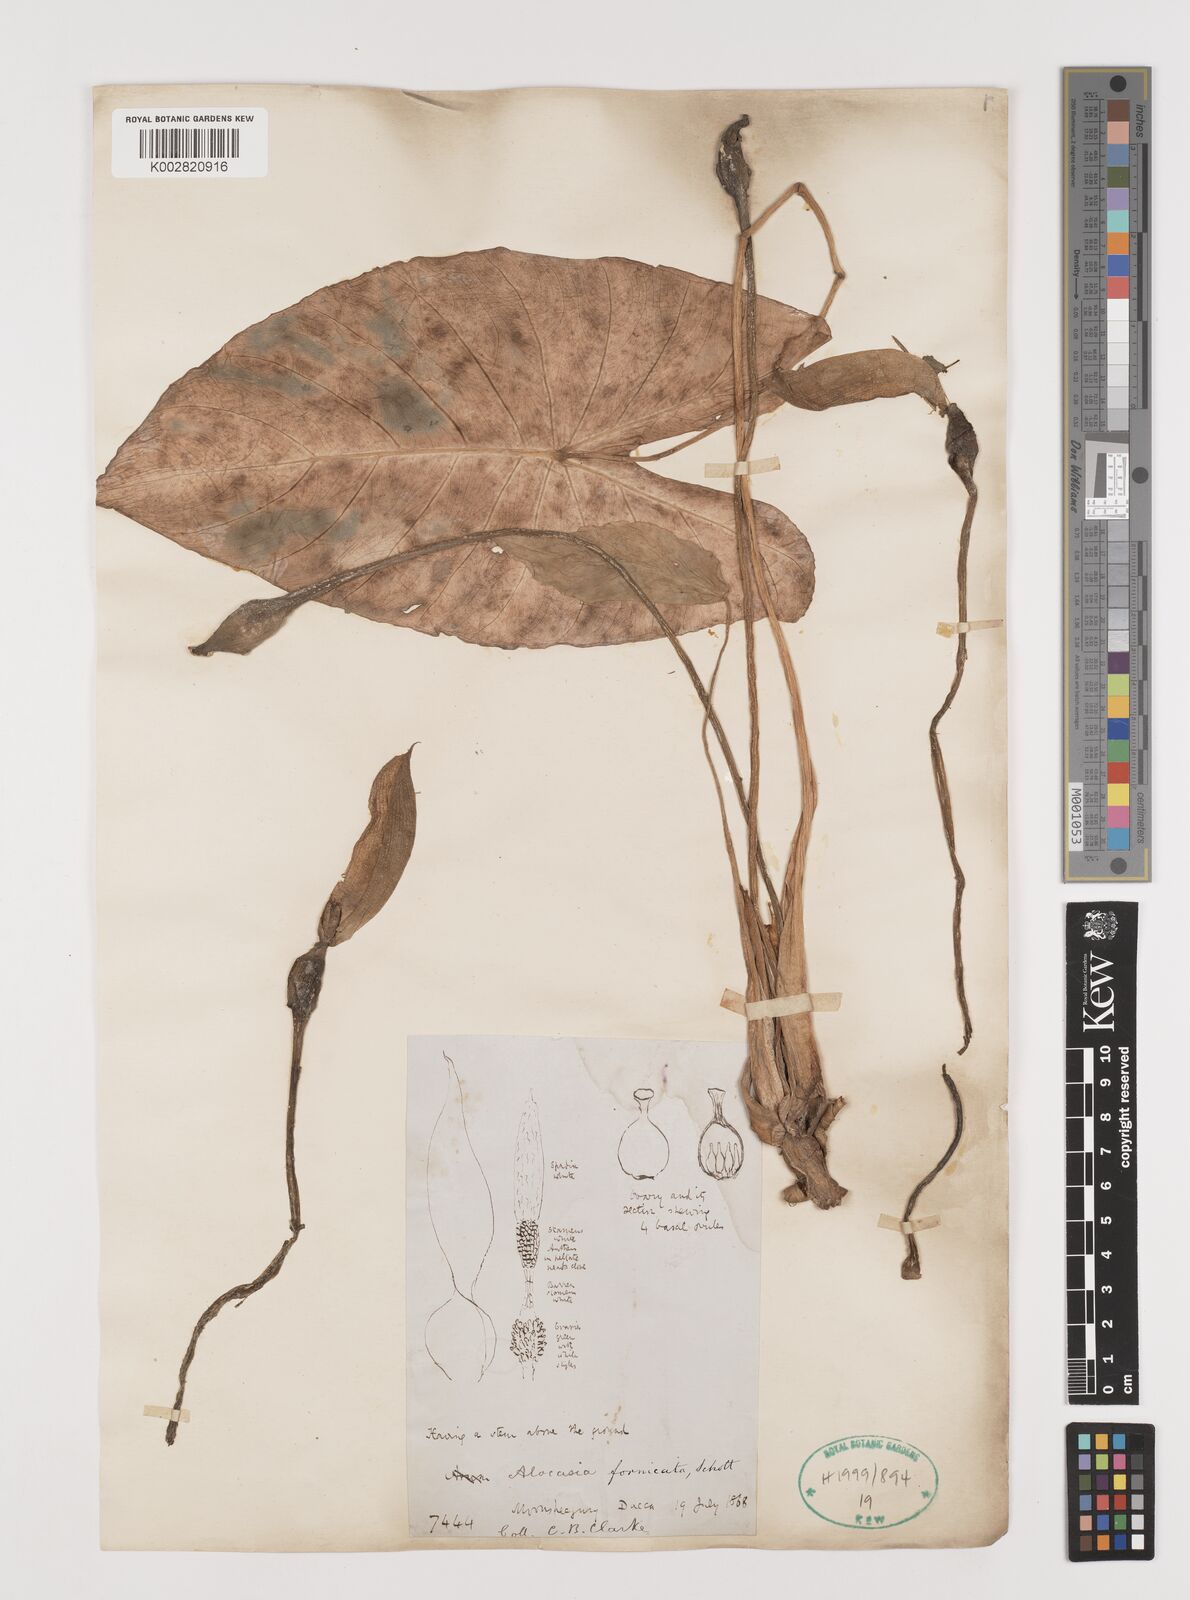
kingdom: Plantae
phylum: Tracheophyta
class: Liliopsida
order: Alismatales
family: Araceae
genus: Alocasia
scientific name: Alocasia fornicata
